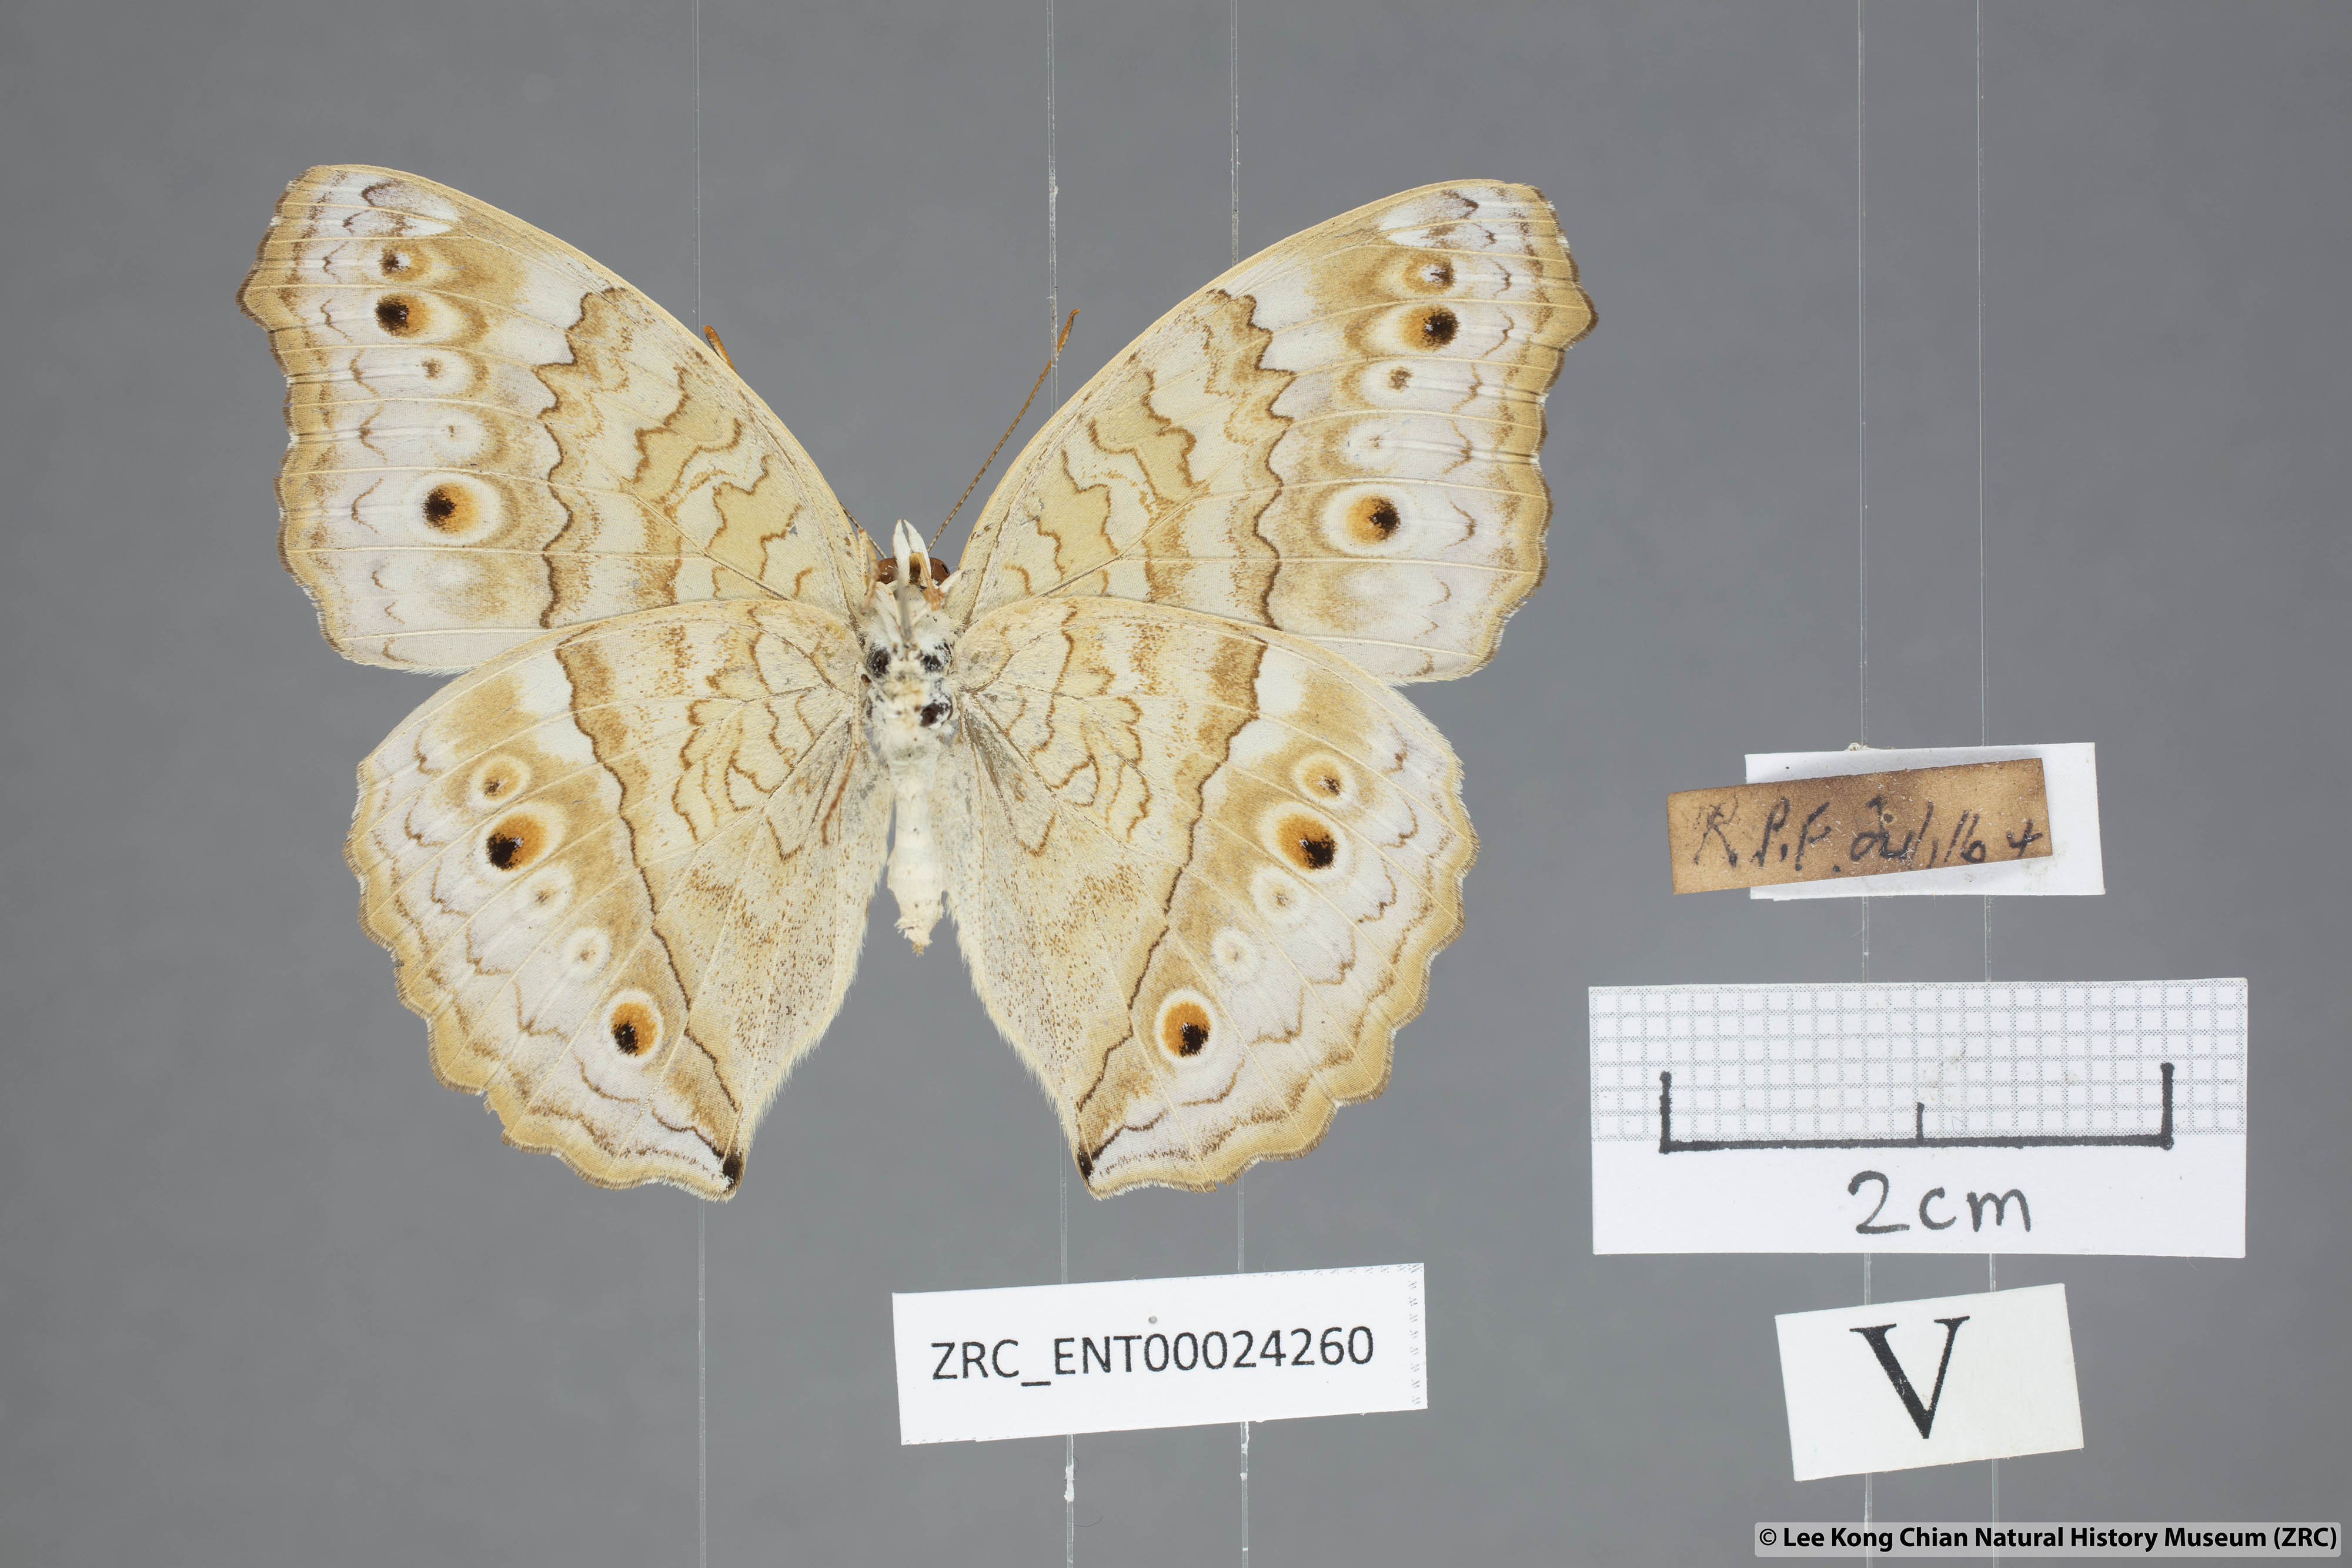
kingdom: Animalia
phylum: Arthropoda
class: Insecta
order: Lepidoptera
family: Nymphalidae
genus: Junonia
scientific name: Junonia atlites
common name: Grey pansy
